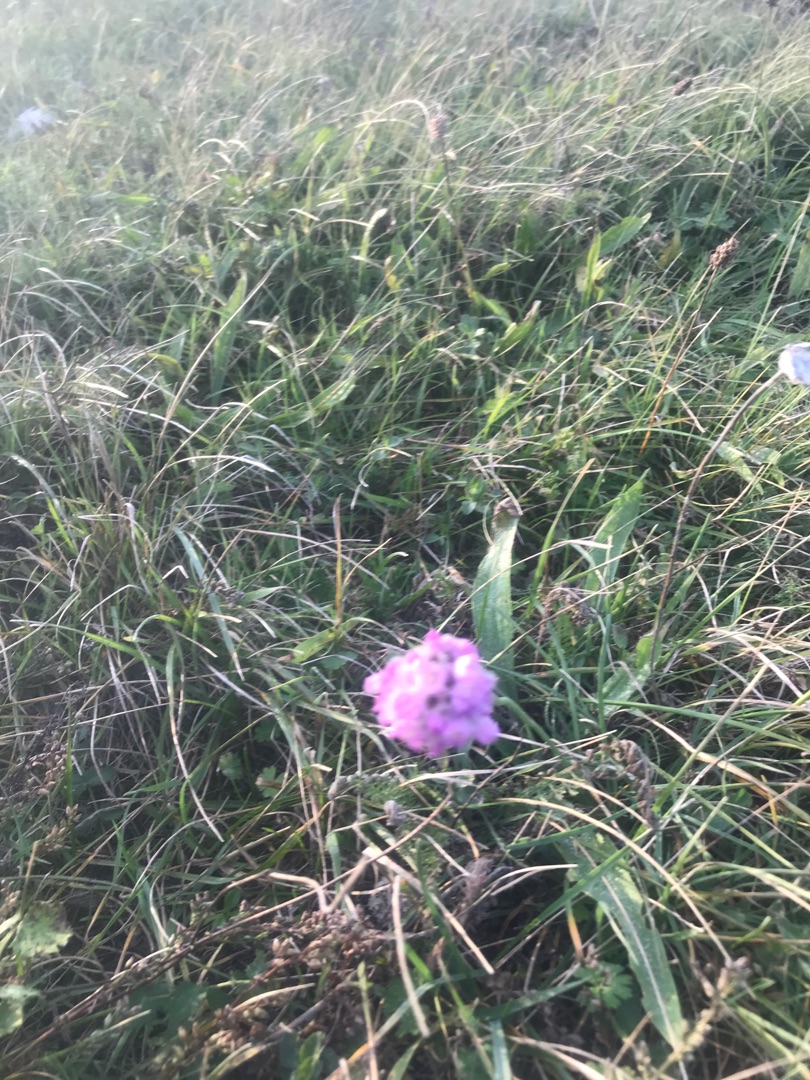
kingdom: Plantae
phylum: Tracheophyta
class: Magnoliopsida
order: Caryophyllales
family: Plumbaginaceae
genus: Armeria
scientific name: Armeria maritima
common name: Engelskgræs
